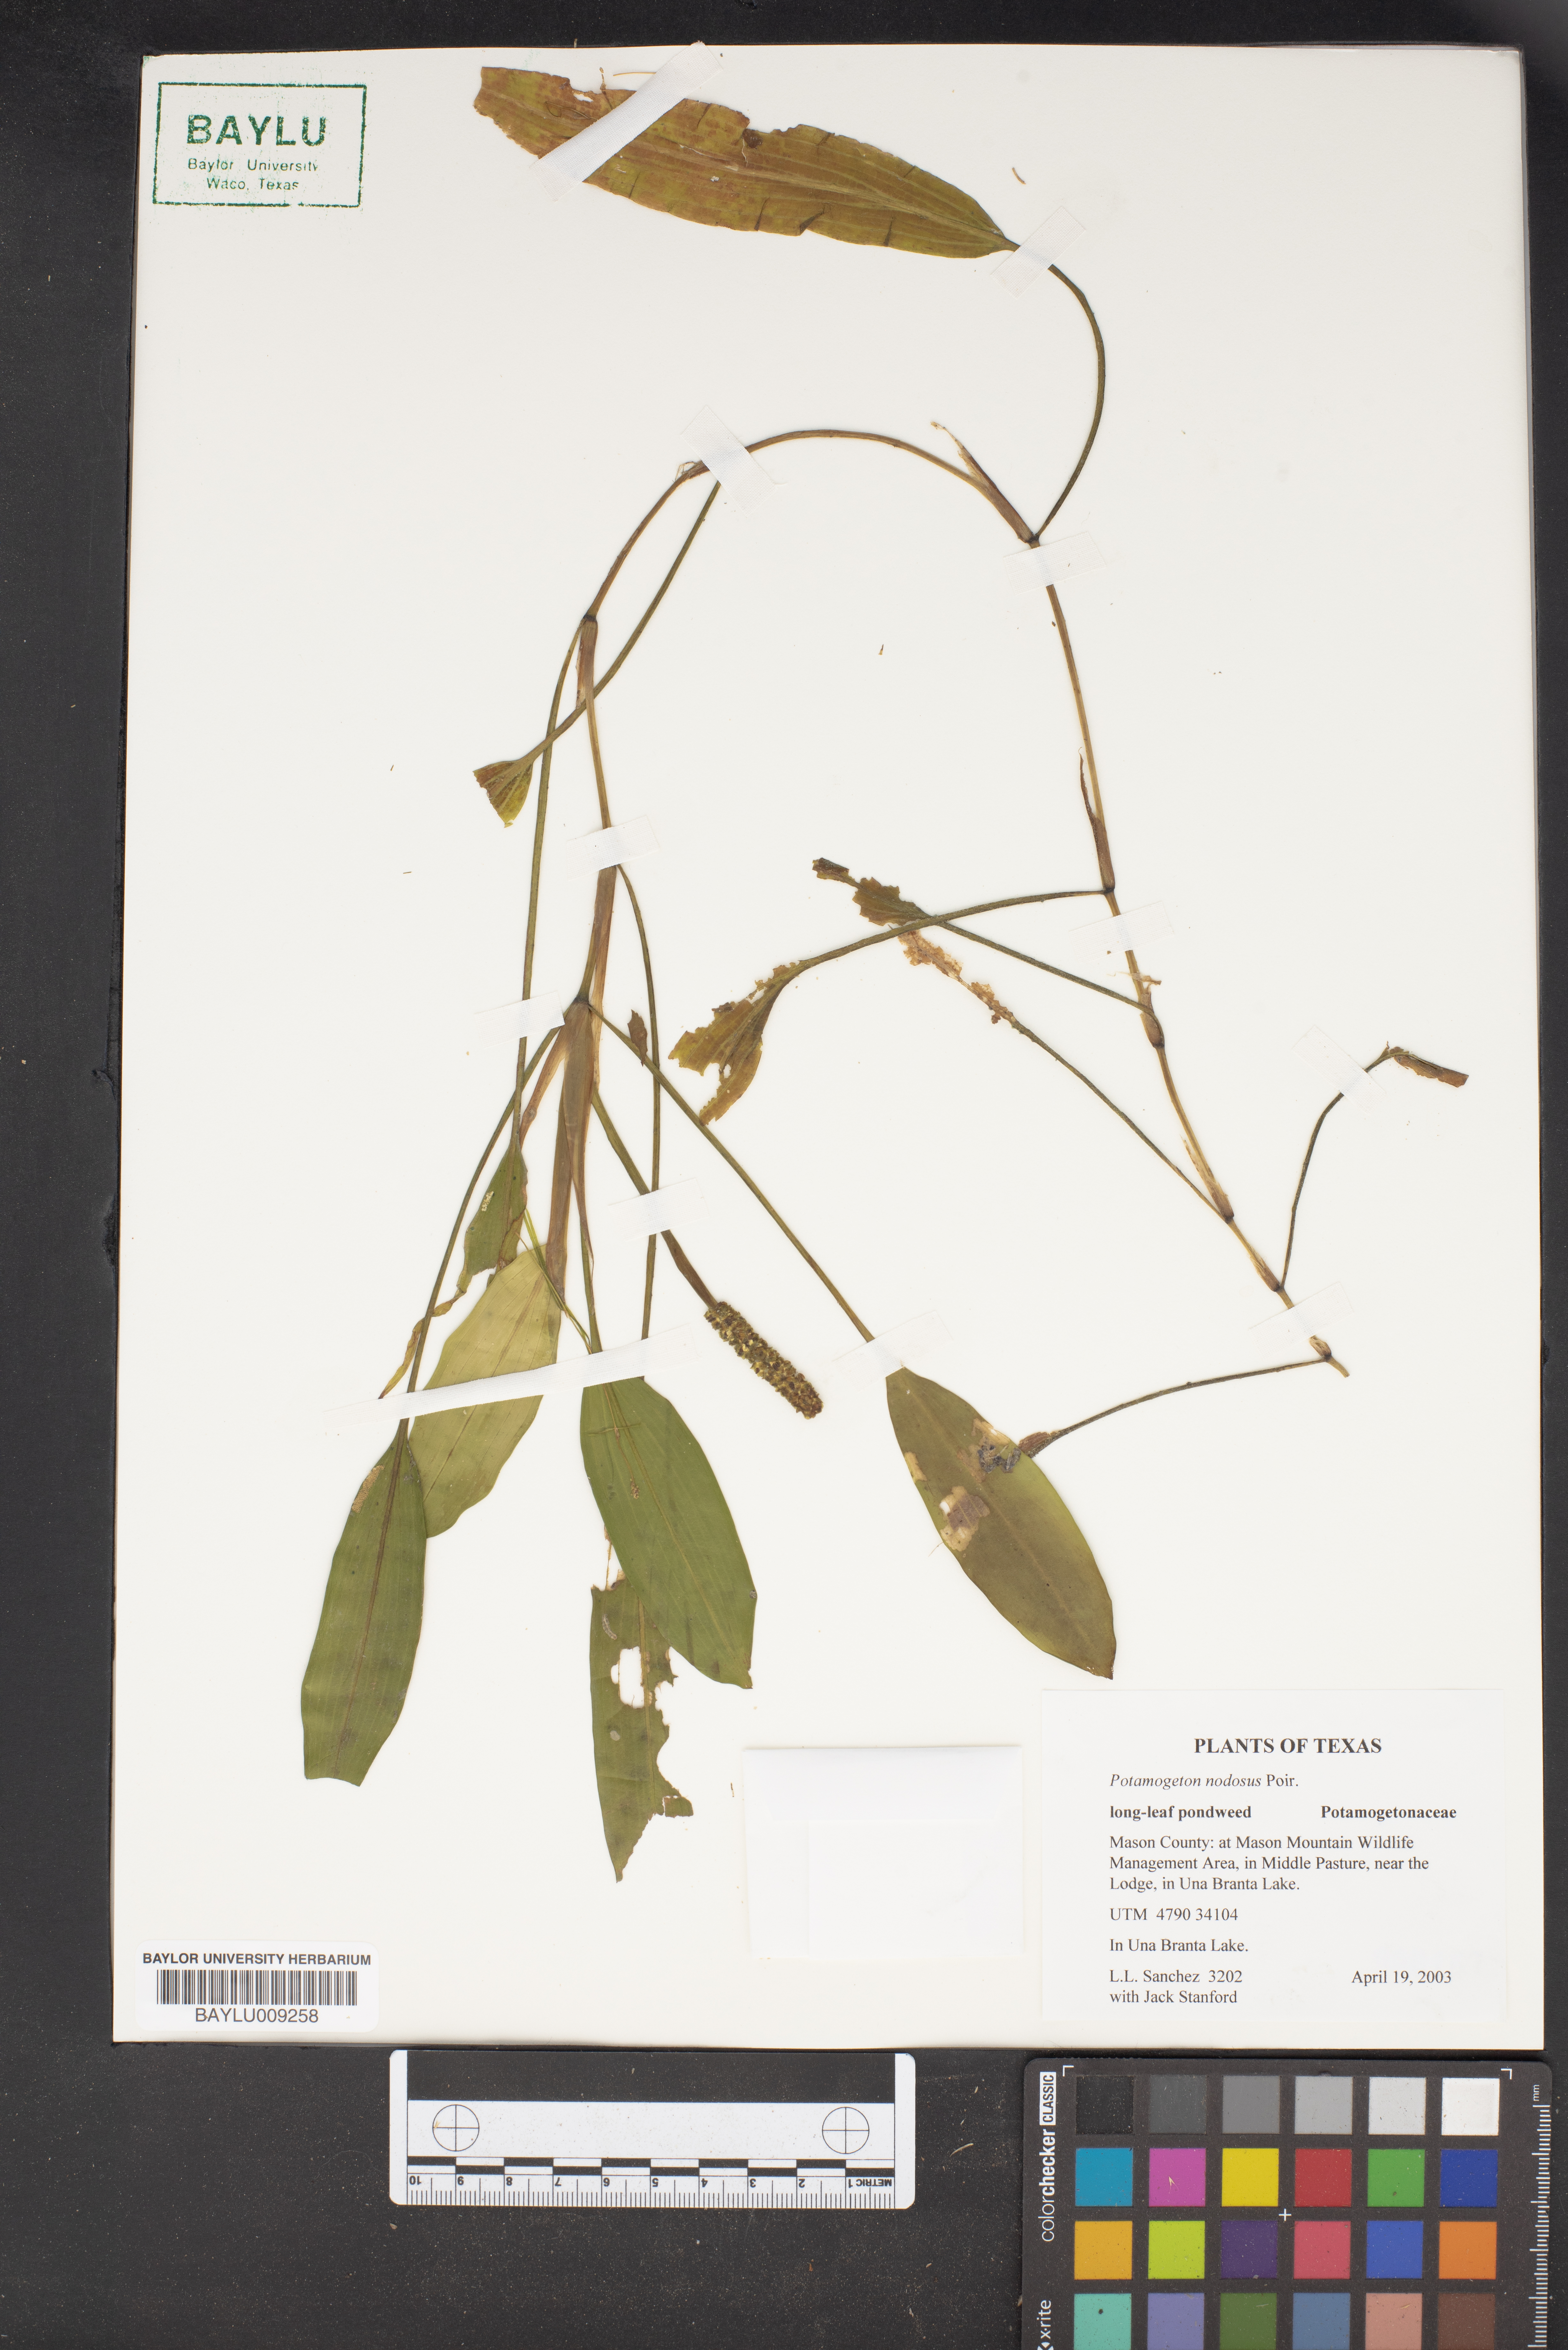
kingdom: Plantae
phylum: Tracheophyta
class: Liliopsida
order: Alismatales
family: Potamogetonaceae
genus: Potamogeton
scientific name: Potamogeton nodosus
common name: Loddon pondweed
